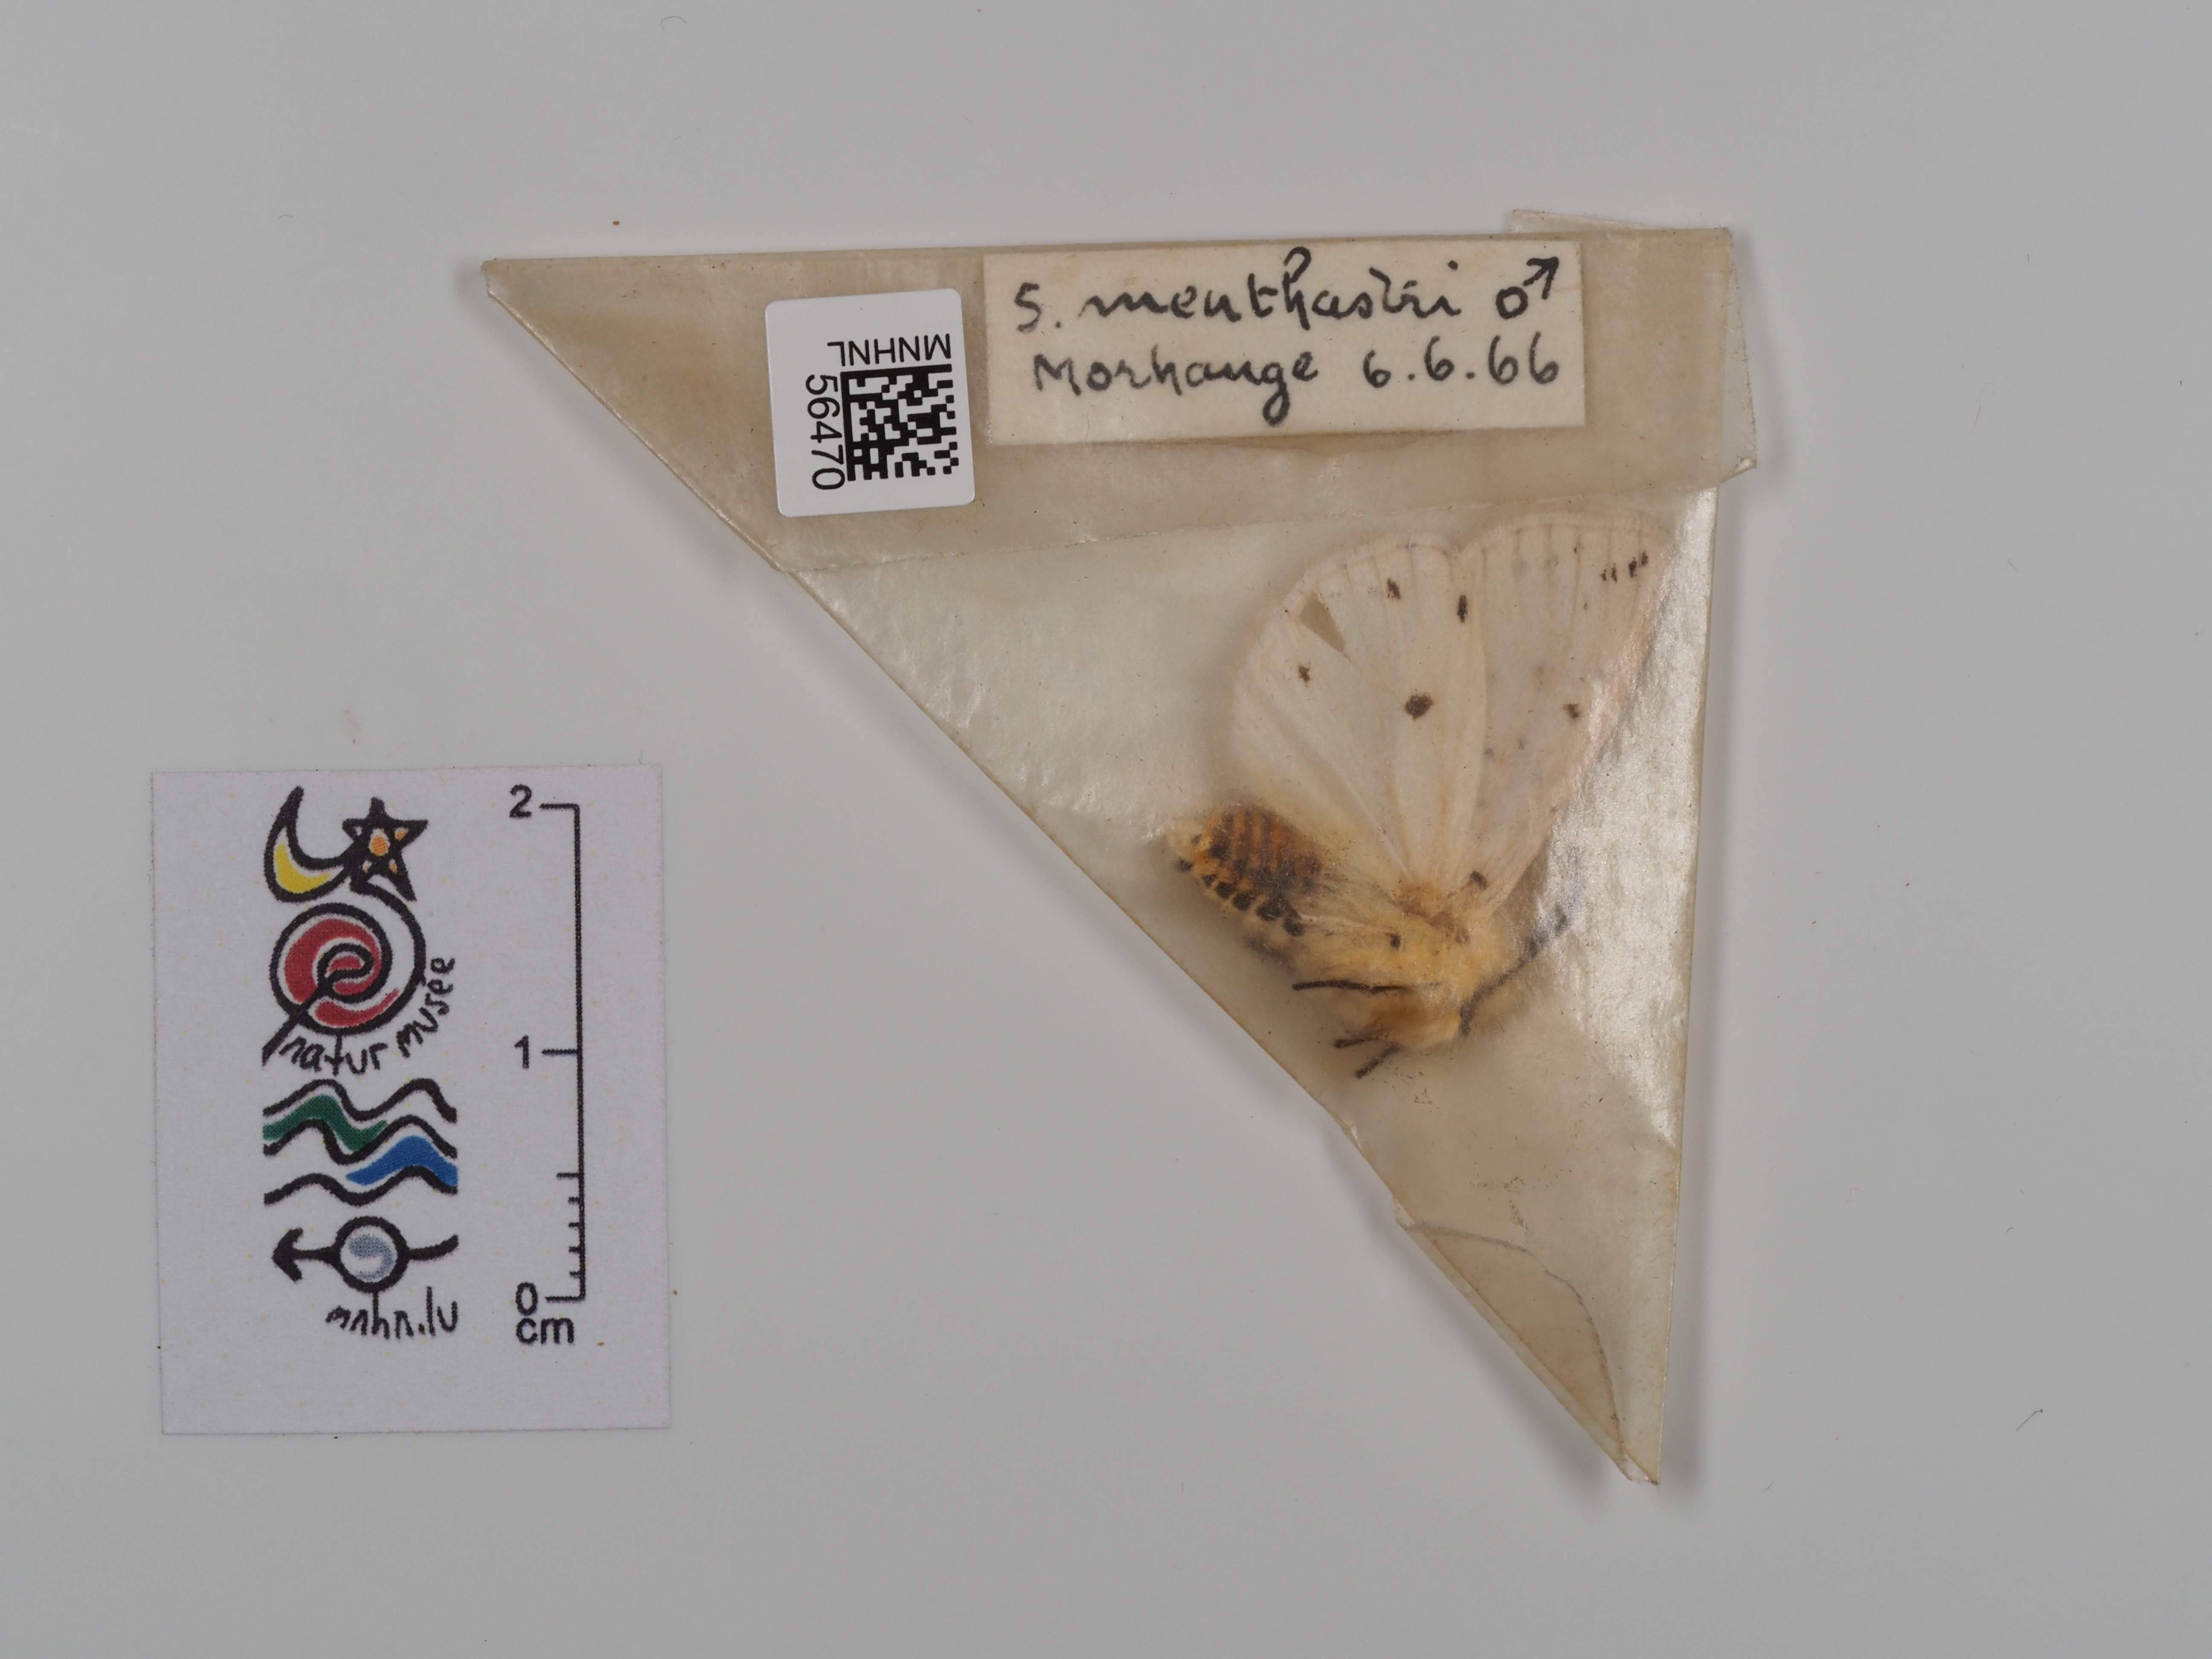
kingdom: Animalia
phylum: Arthropoda
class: Insecta
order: Lepidoptera
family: Erebidae
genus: Spilosoma
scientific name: Spilosoma lubricipeda
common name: White ermine
